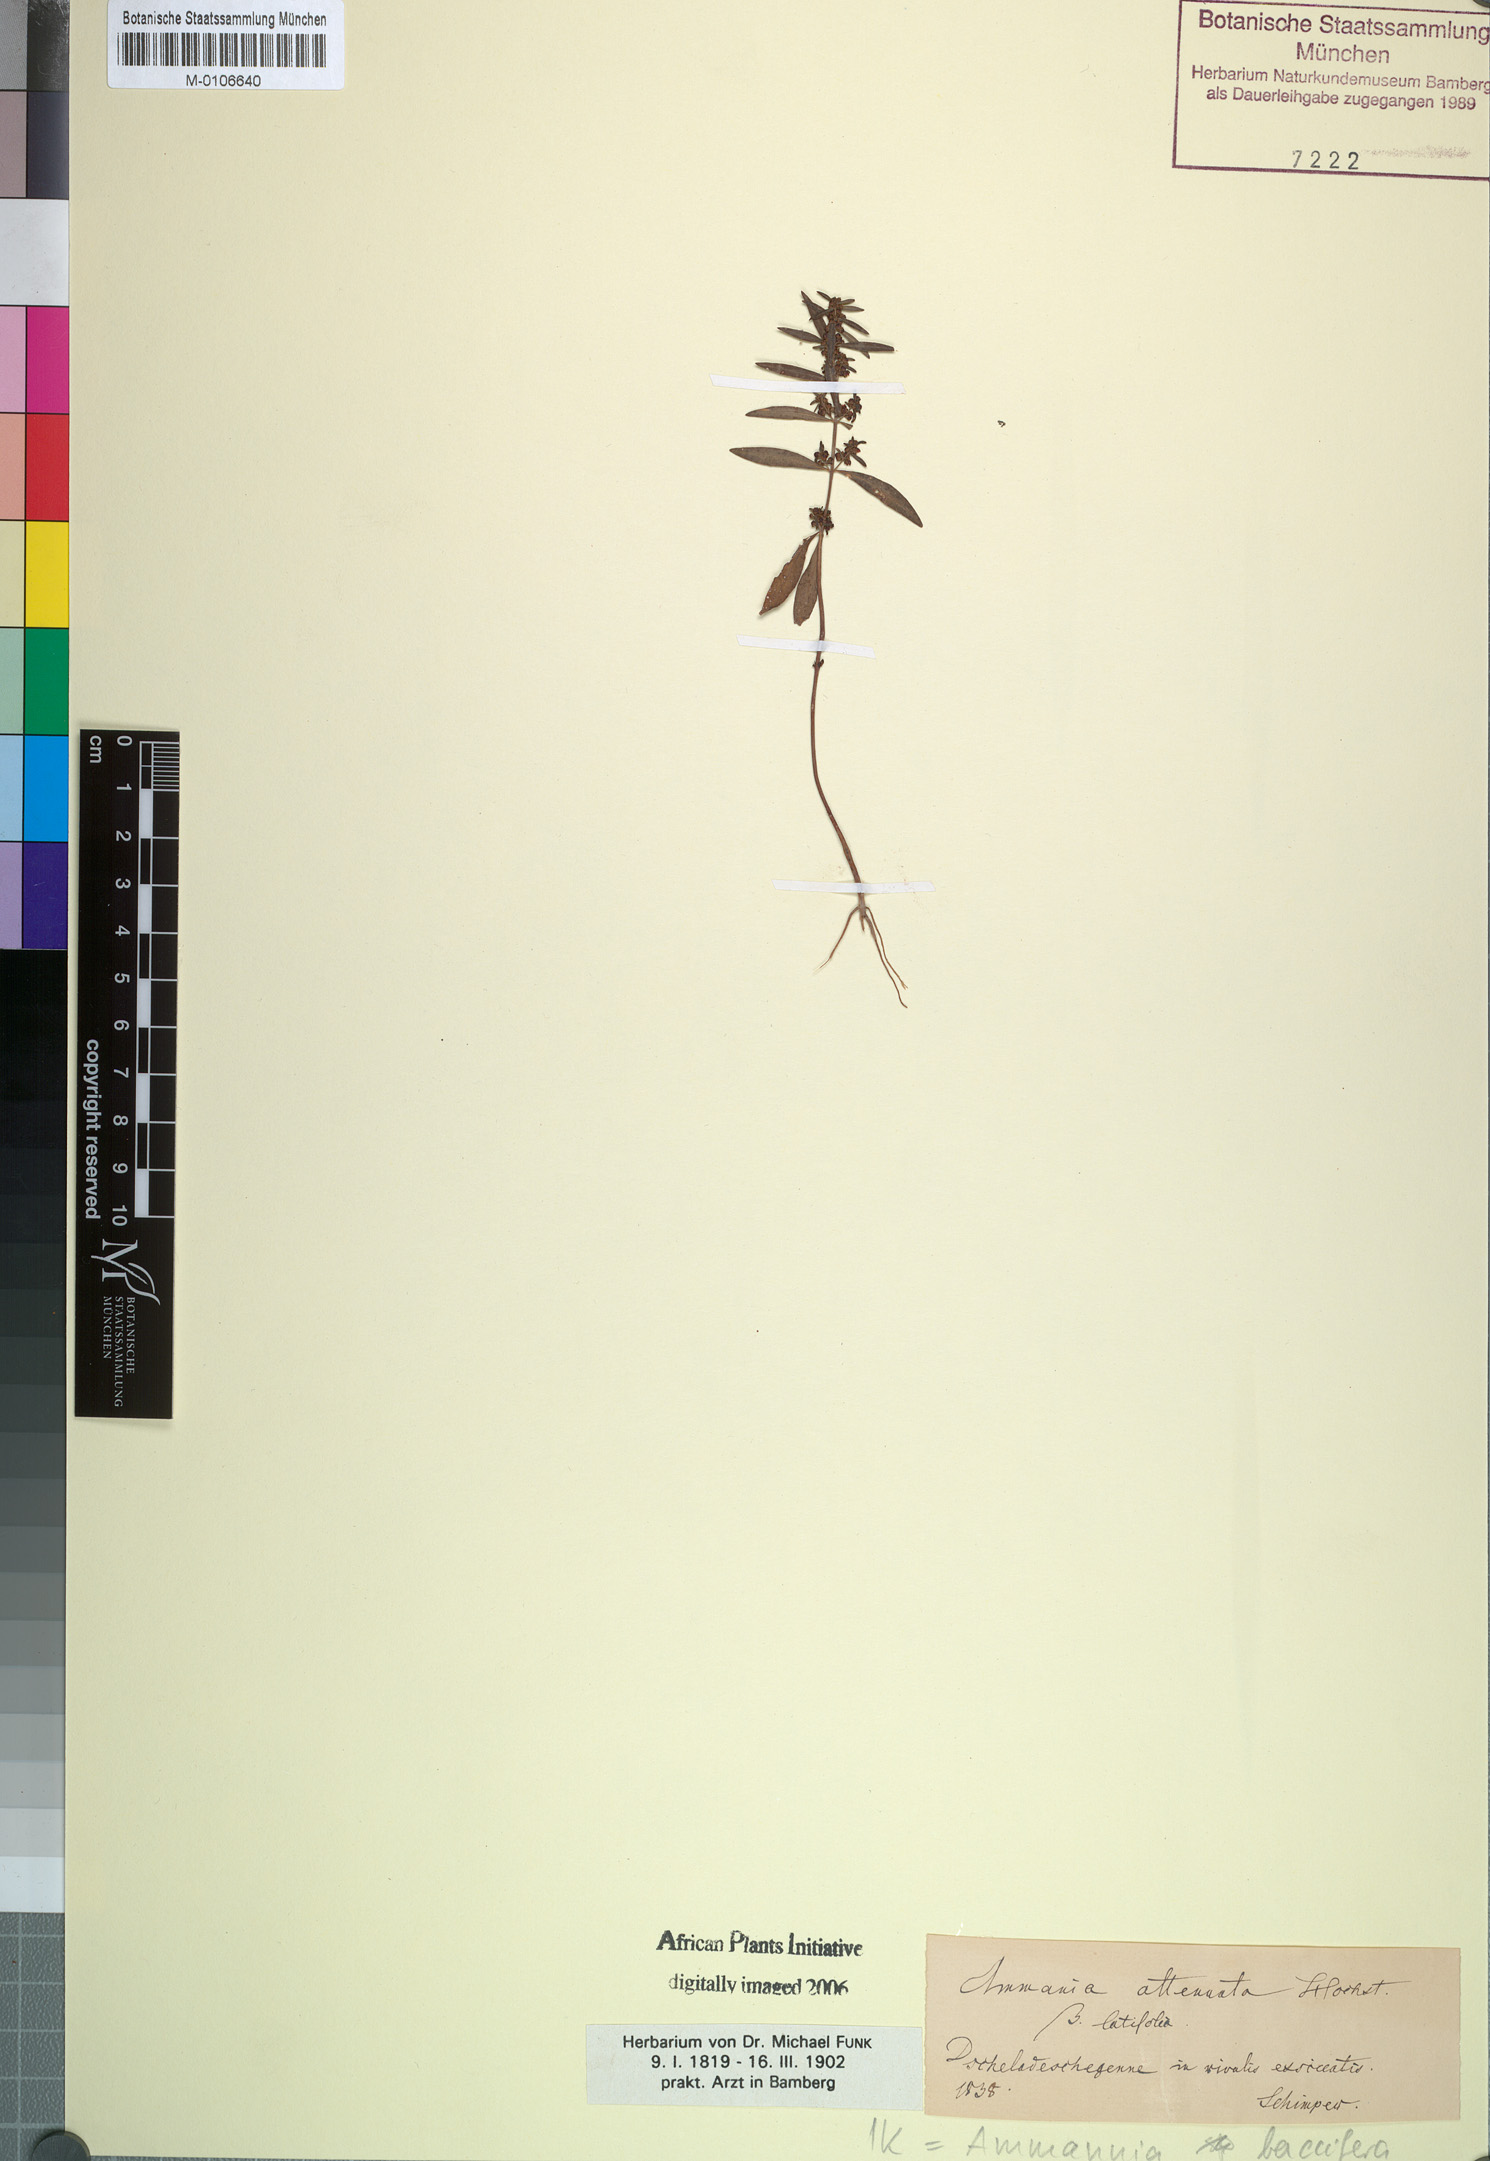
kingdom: Plantae
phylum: Tracheophyta
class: Magnoliopsida
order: Myrtales
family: Lythraceae
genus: Ammannia
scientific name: Ammannia baccifera
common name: Blistering ammania
